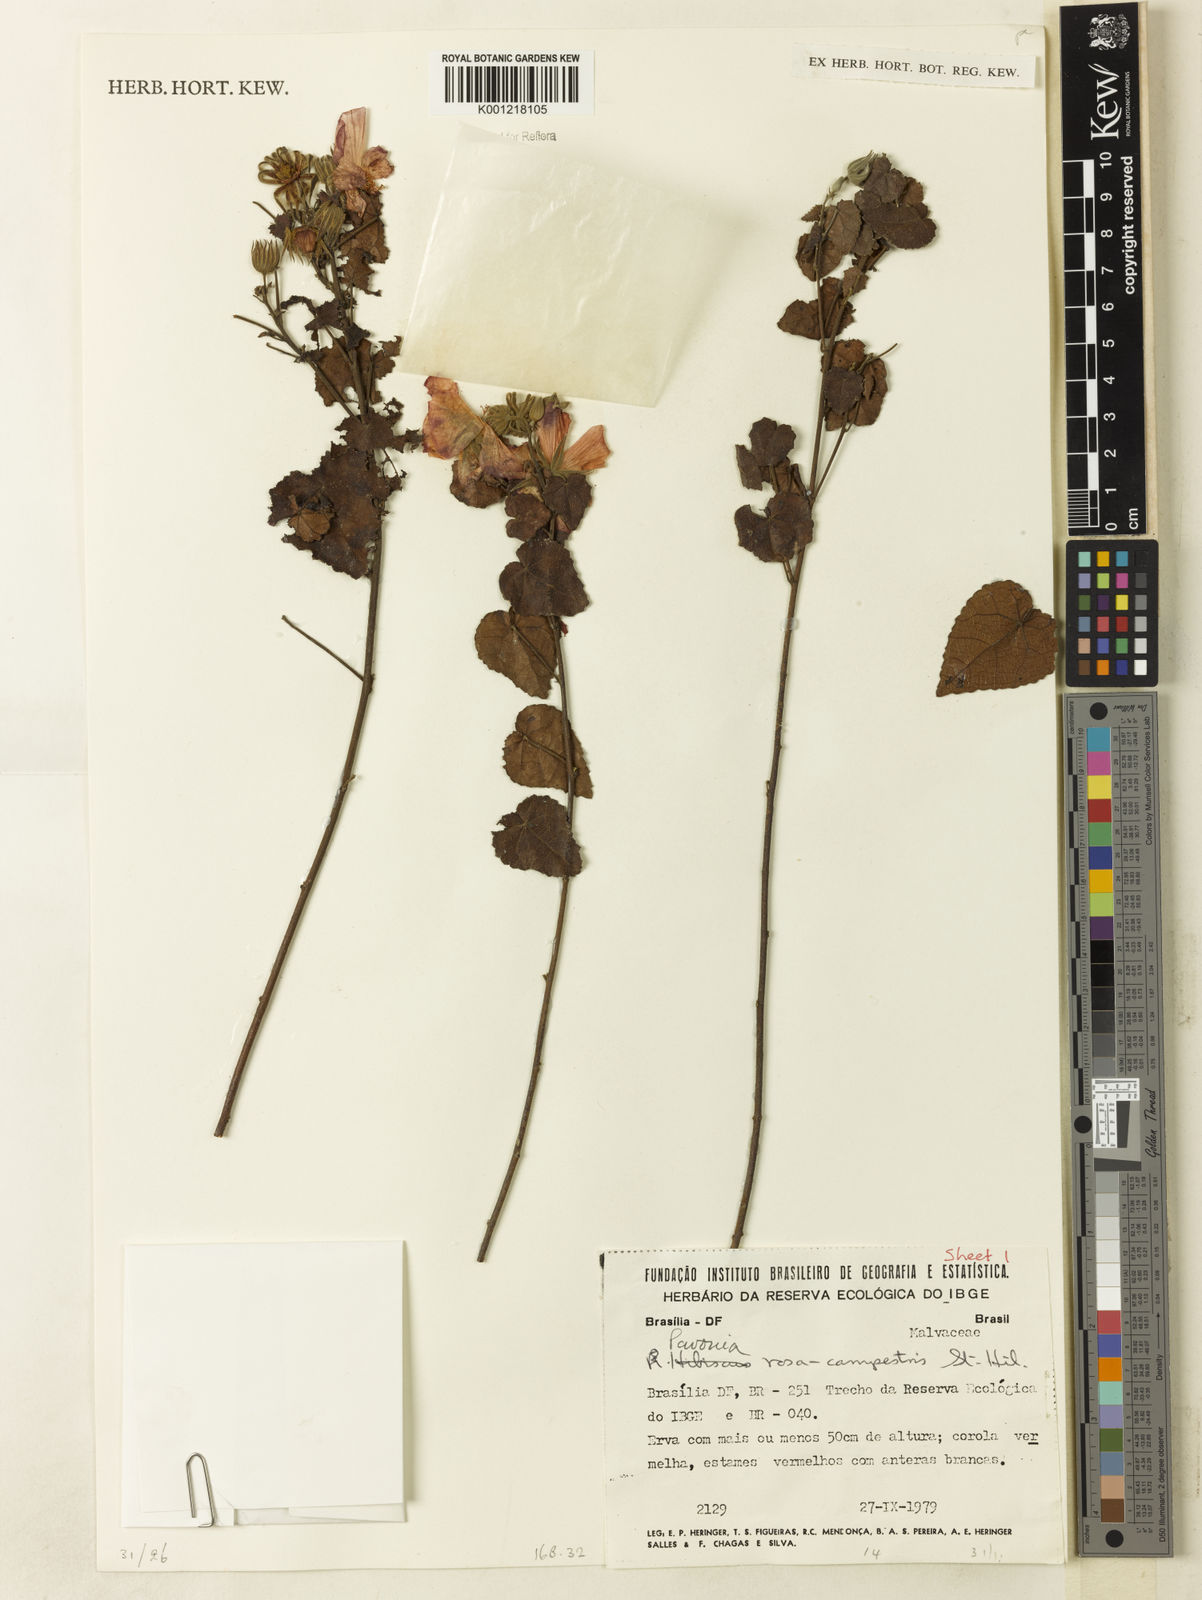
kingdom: Plantae
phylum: Tracheophyta
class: Magnoliopsida
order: Malvales
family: Malvaceae
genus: Pavonia
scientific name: Pavonia rosa-campestris
